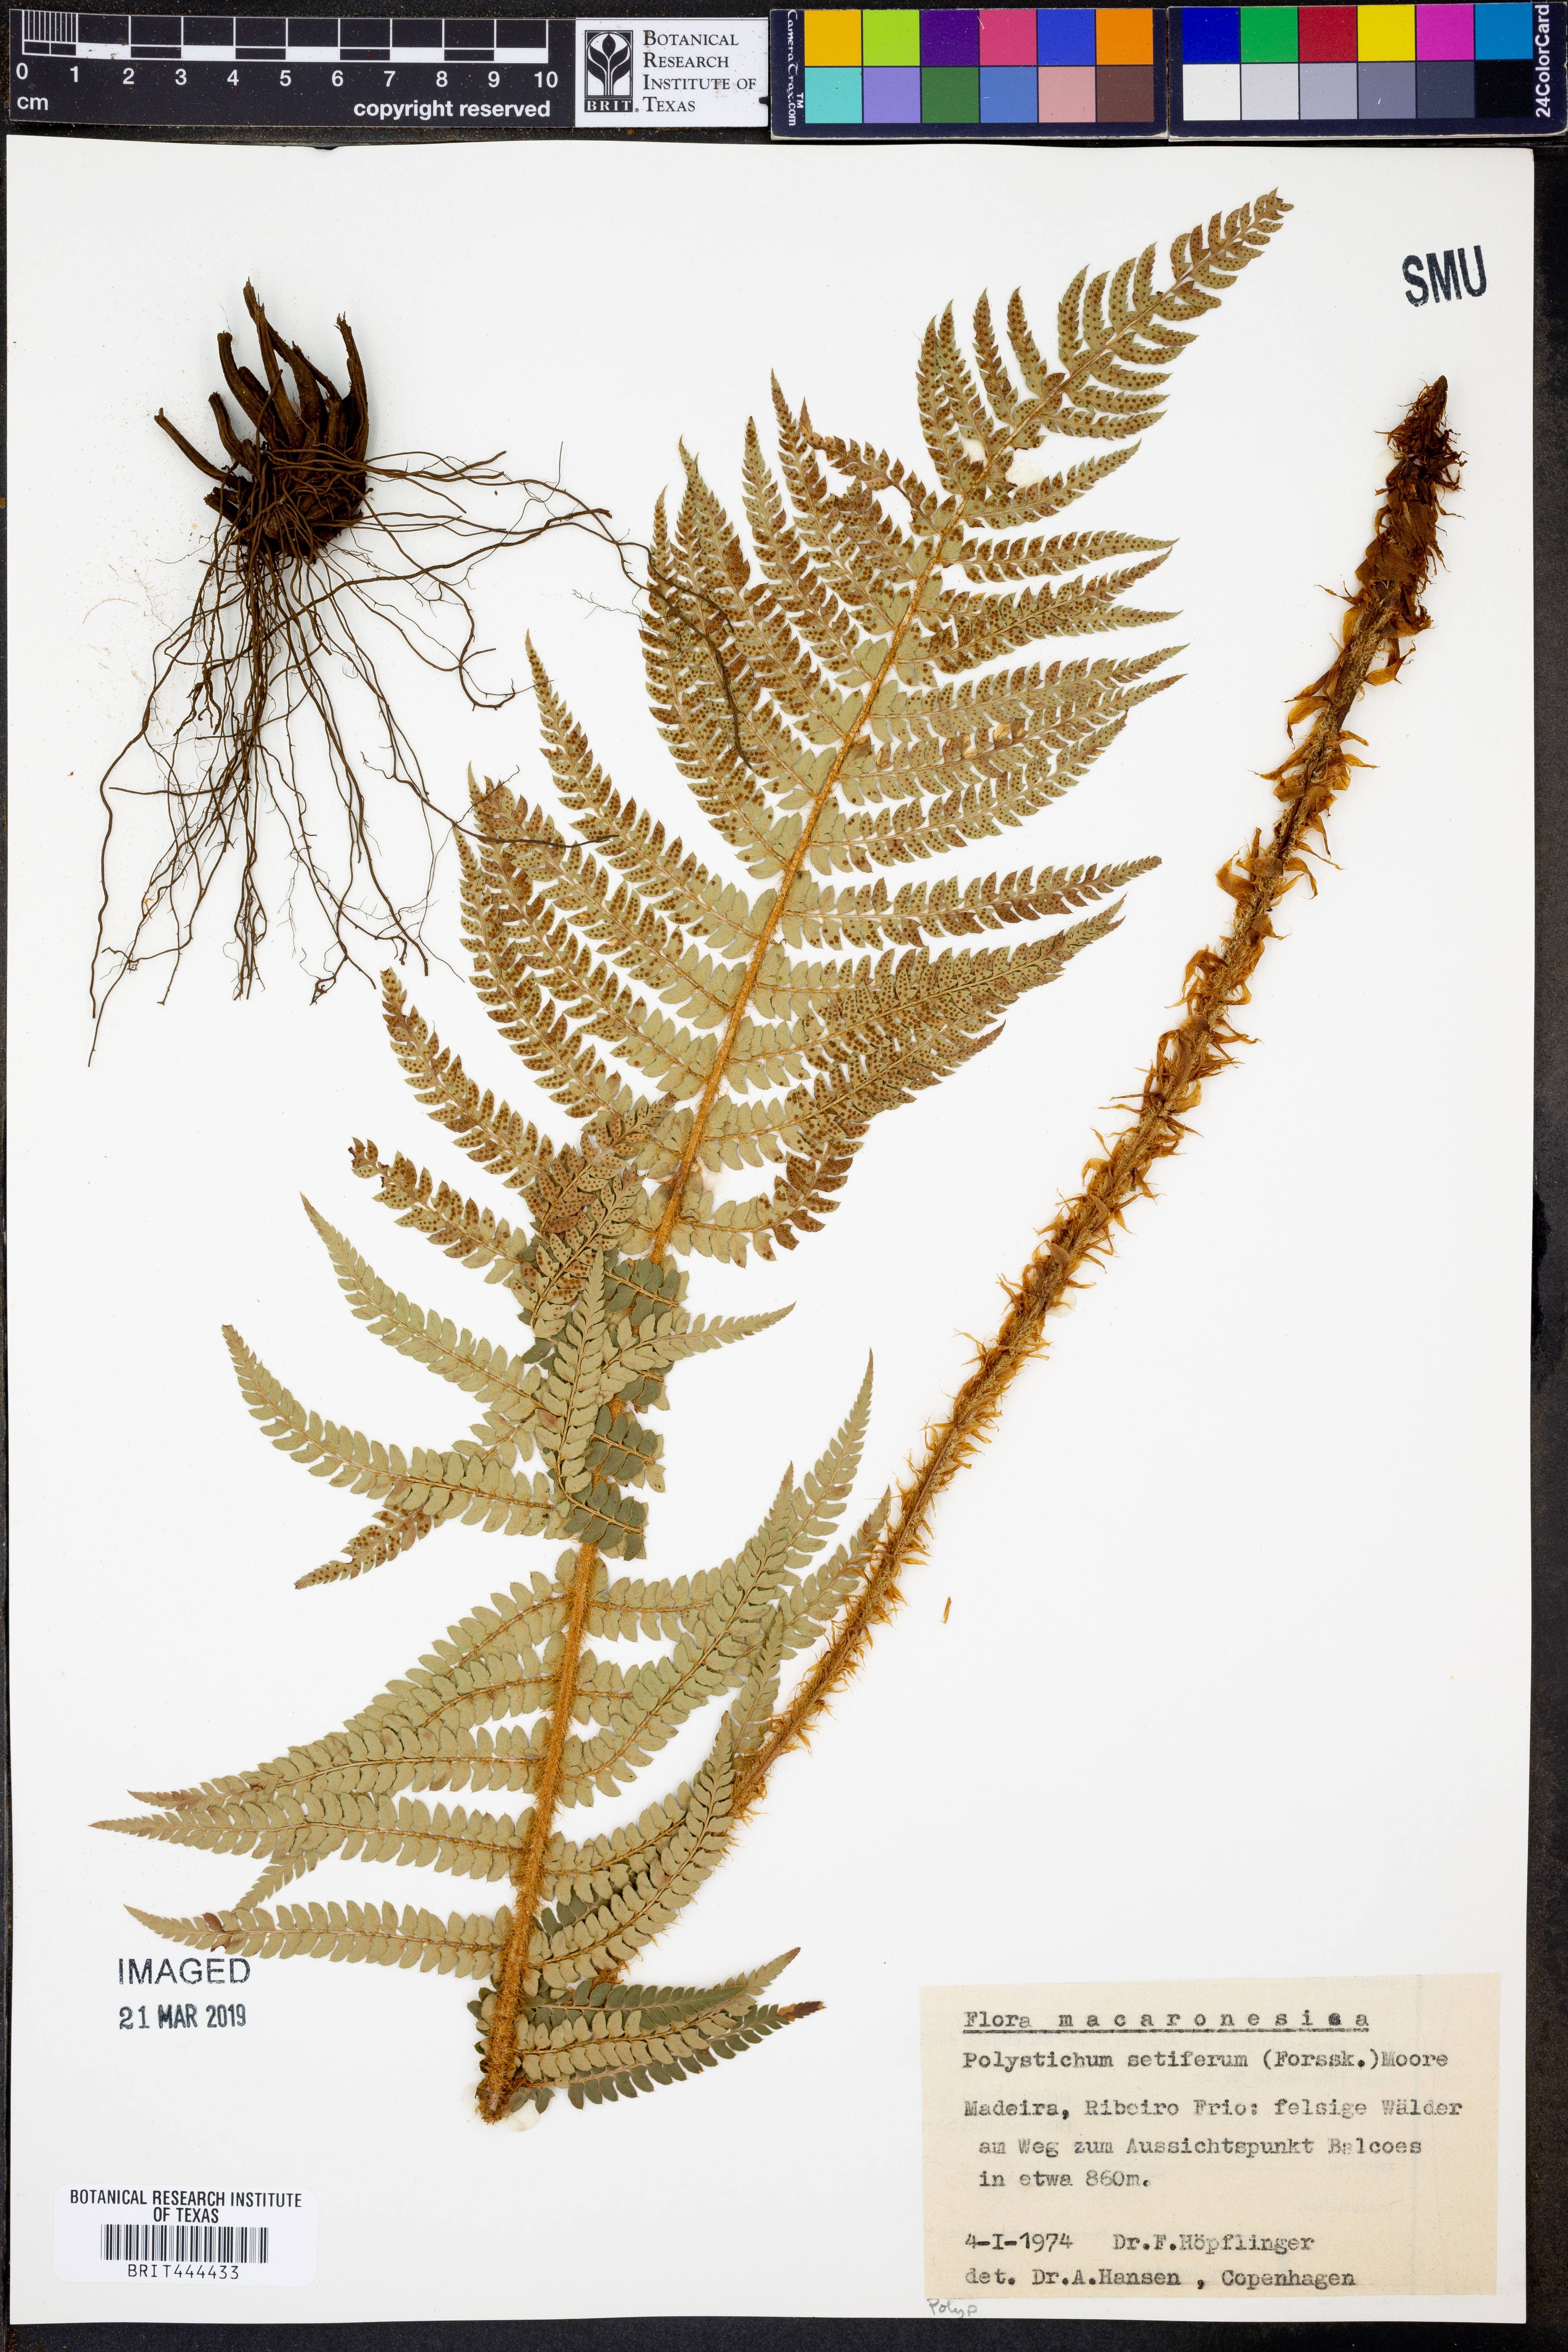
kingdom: Plantae
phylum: Tracheophyta
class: Polypodiopsida
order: Polypodiales
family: Dryopteridaceae
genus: Polystichum
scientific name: Polystichum setiferum
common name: Soft shield-fern
